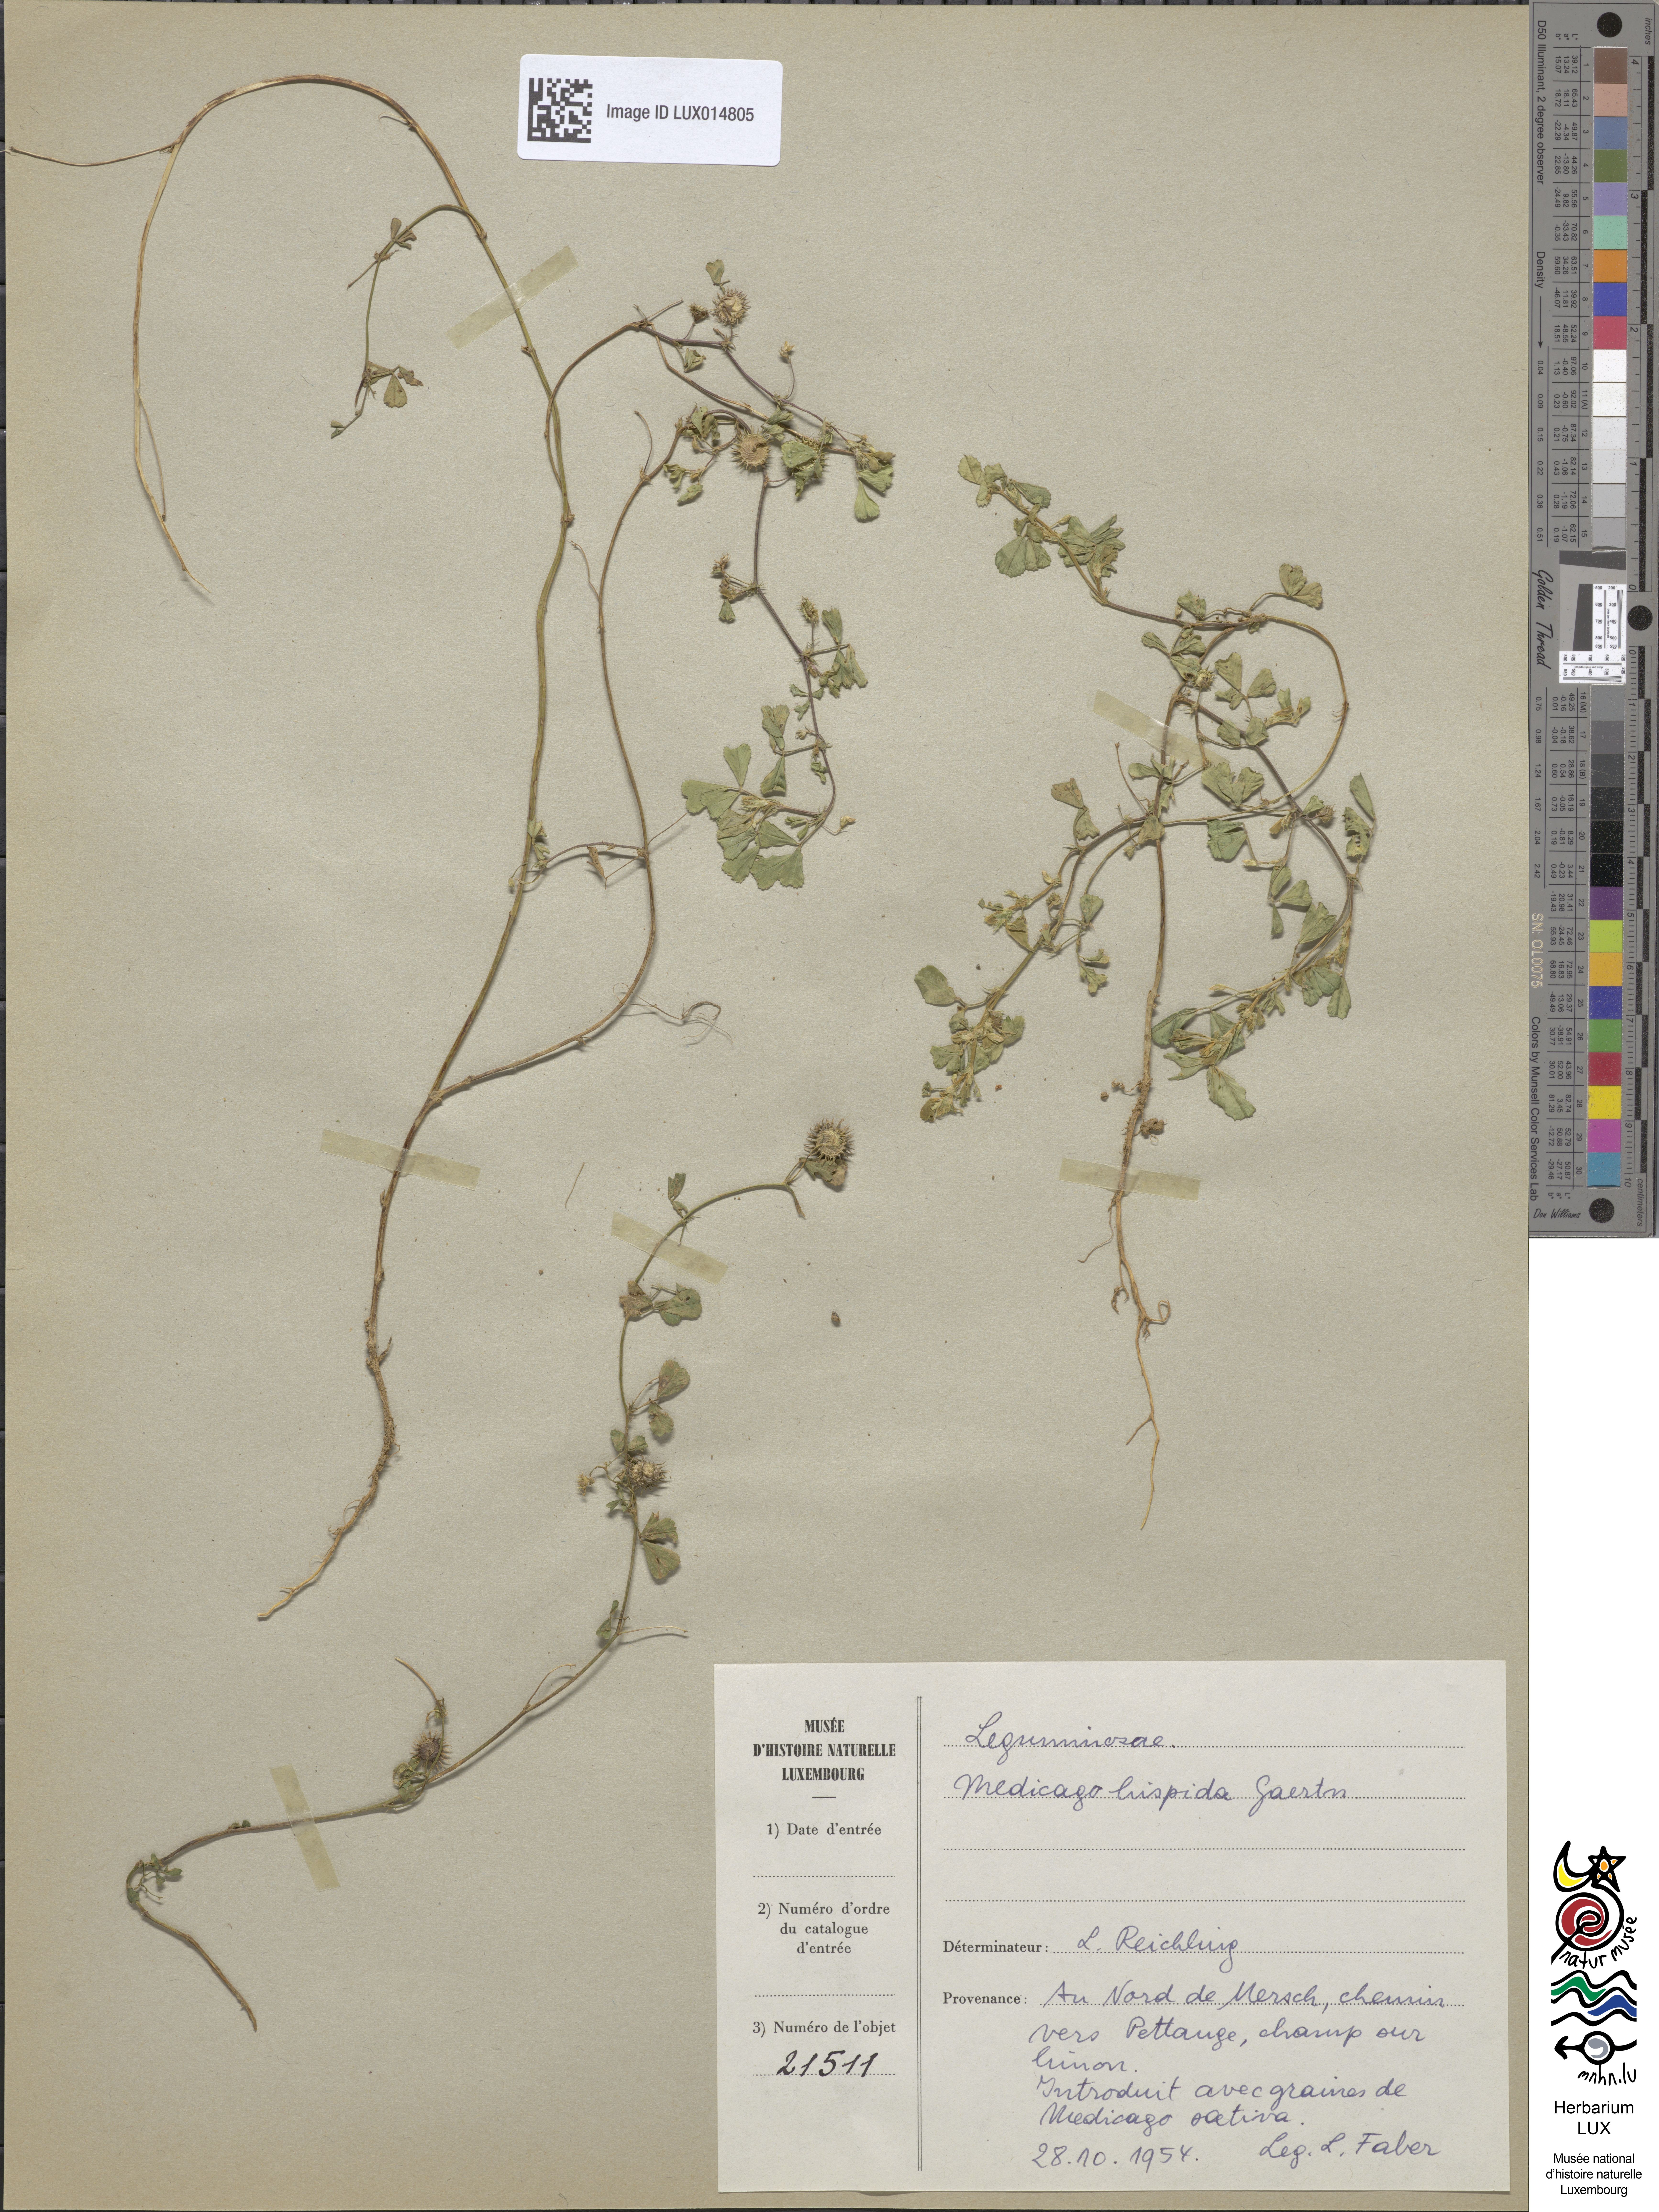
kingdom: Plantae
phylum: Tracheophyta
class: Magnoliopsida
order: Fabales
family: Fabaceae
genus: Medicago
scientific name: Medicago polymorpha
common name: Burclover
